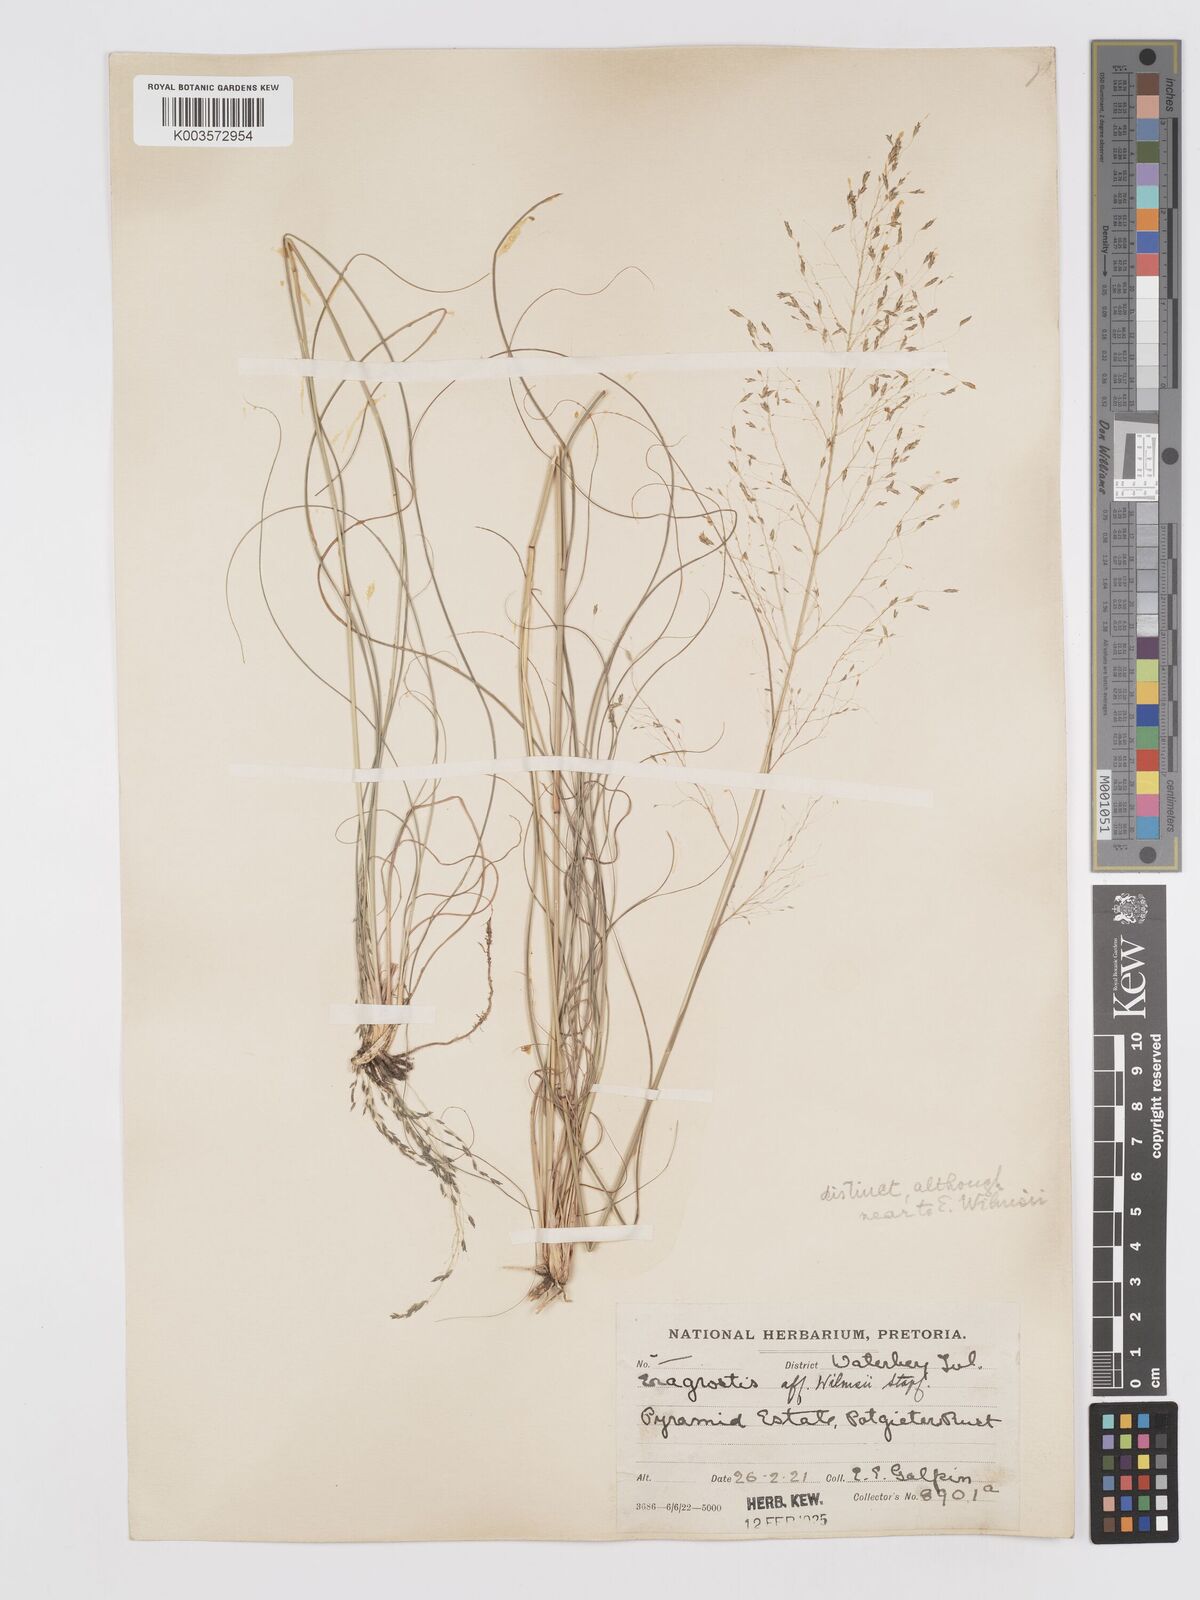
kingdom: Plantae
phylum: Tracheophyta
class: Liliopsida
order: Poales
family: Poaceae
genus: Eragrostis
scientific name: Eragrostis curvula
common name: African love-grass
